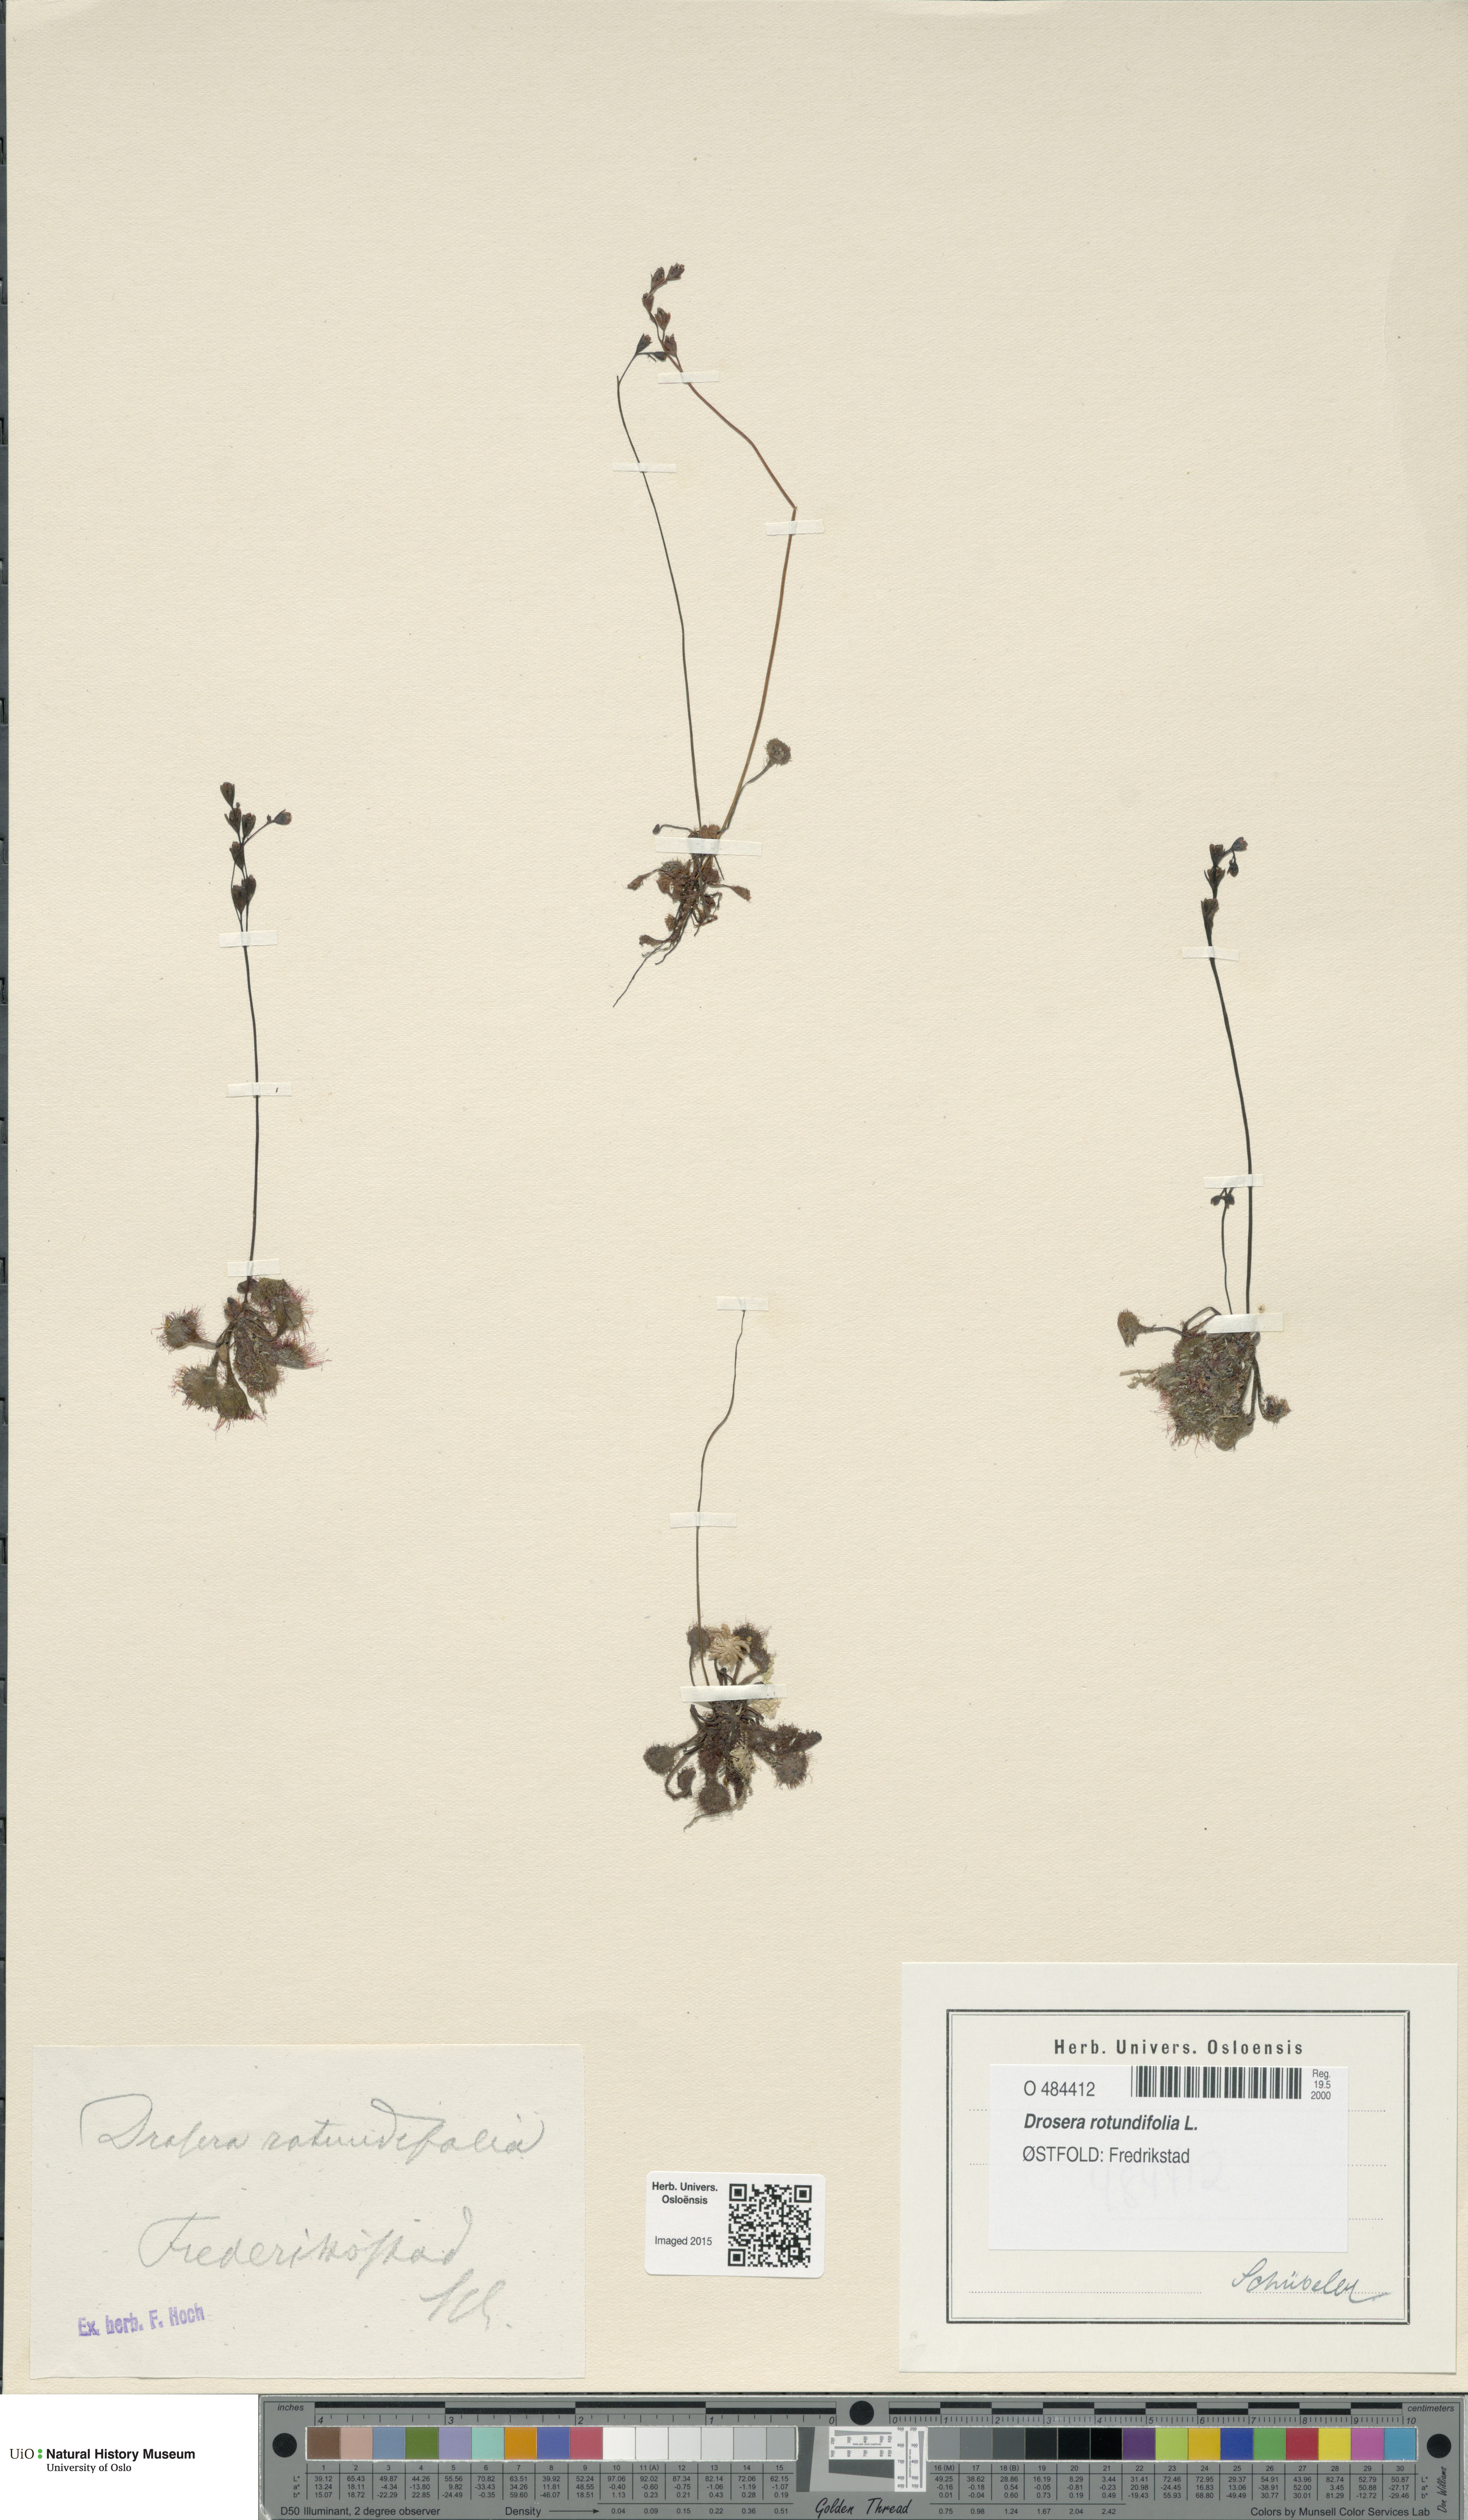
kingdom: Plantae
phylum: Tracheophyta
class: Magnoliopsida
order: Caryophyllales
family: Droseraceae
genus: Drosera
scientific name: Drosera rotundifolia
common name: Round-leaved sundew
